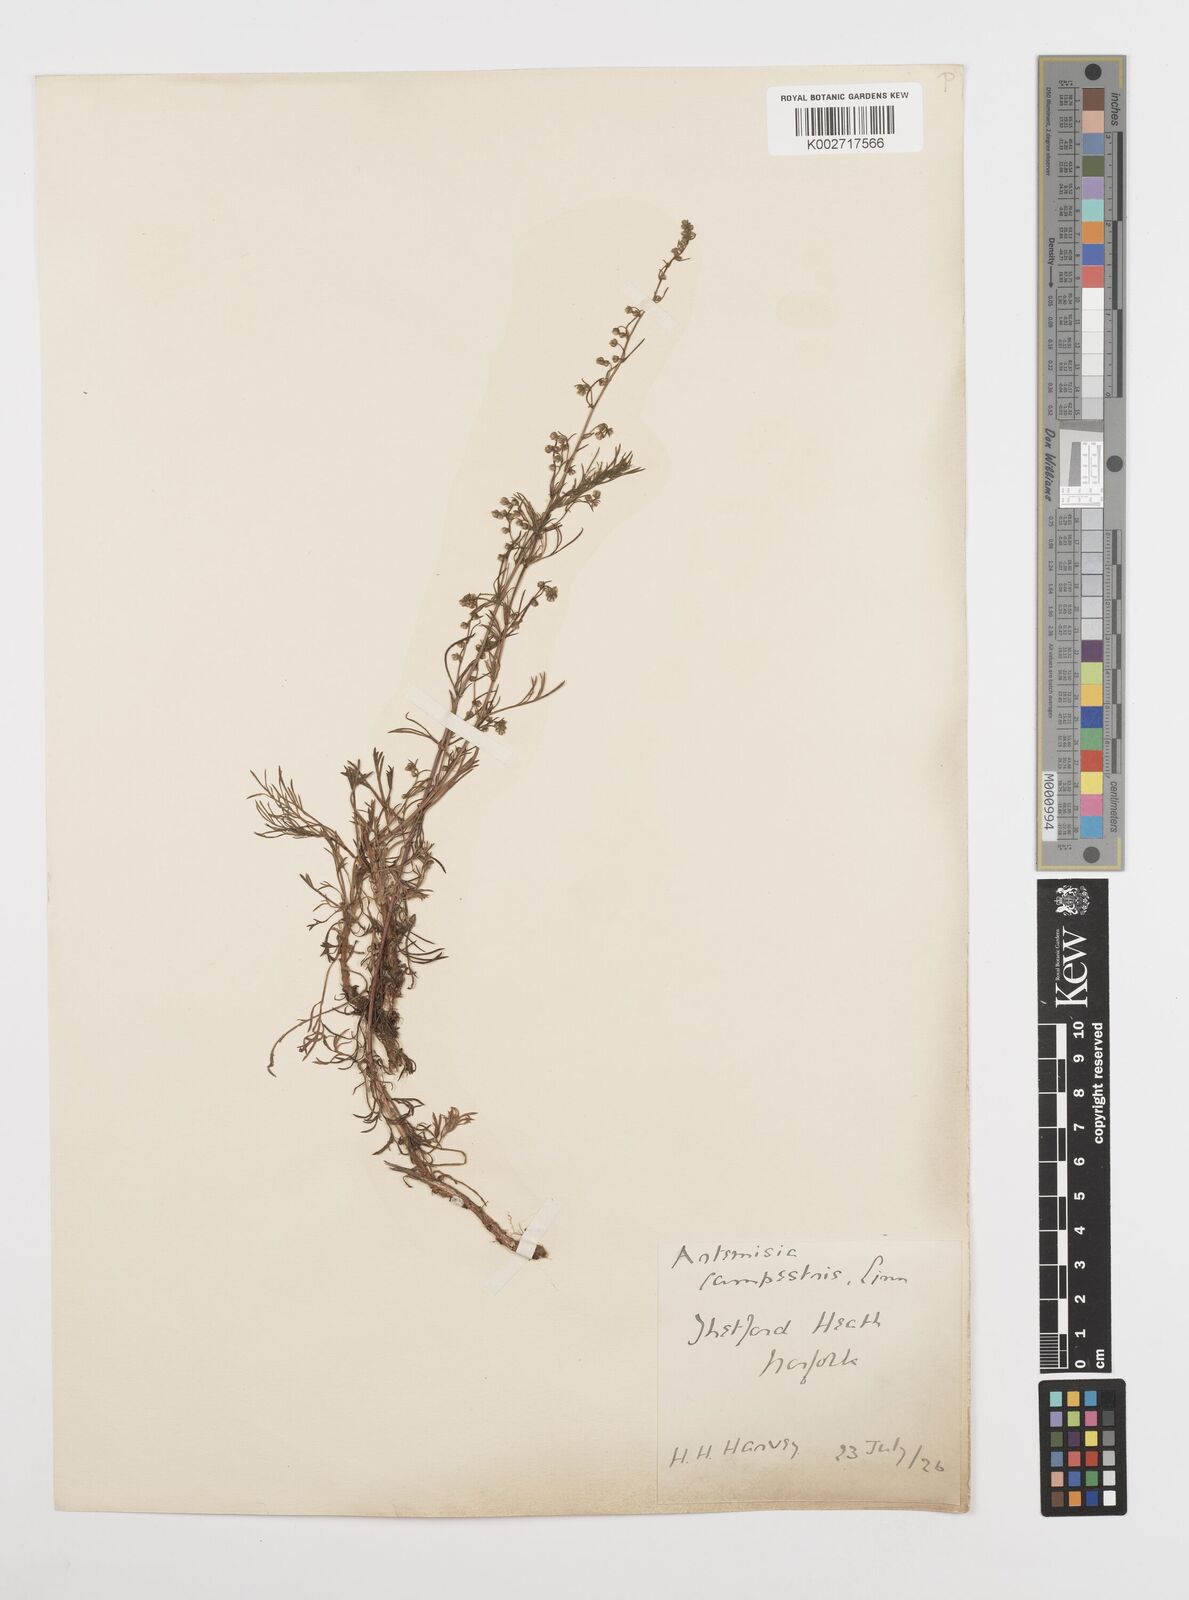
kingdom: Plantae
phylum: Tracheophyta
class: Magnoliopsida
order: Asterales
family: Asteraceae
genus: Artemisia
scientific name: Artemisia campestris
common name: Field wormwood
